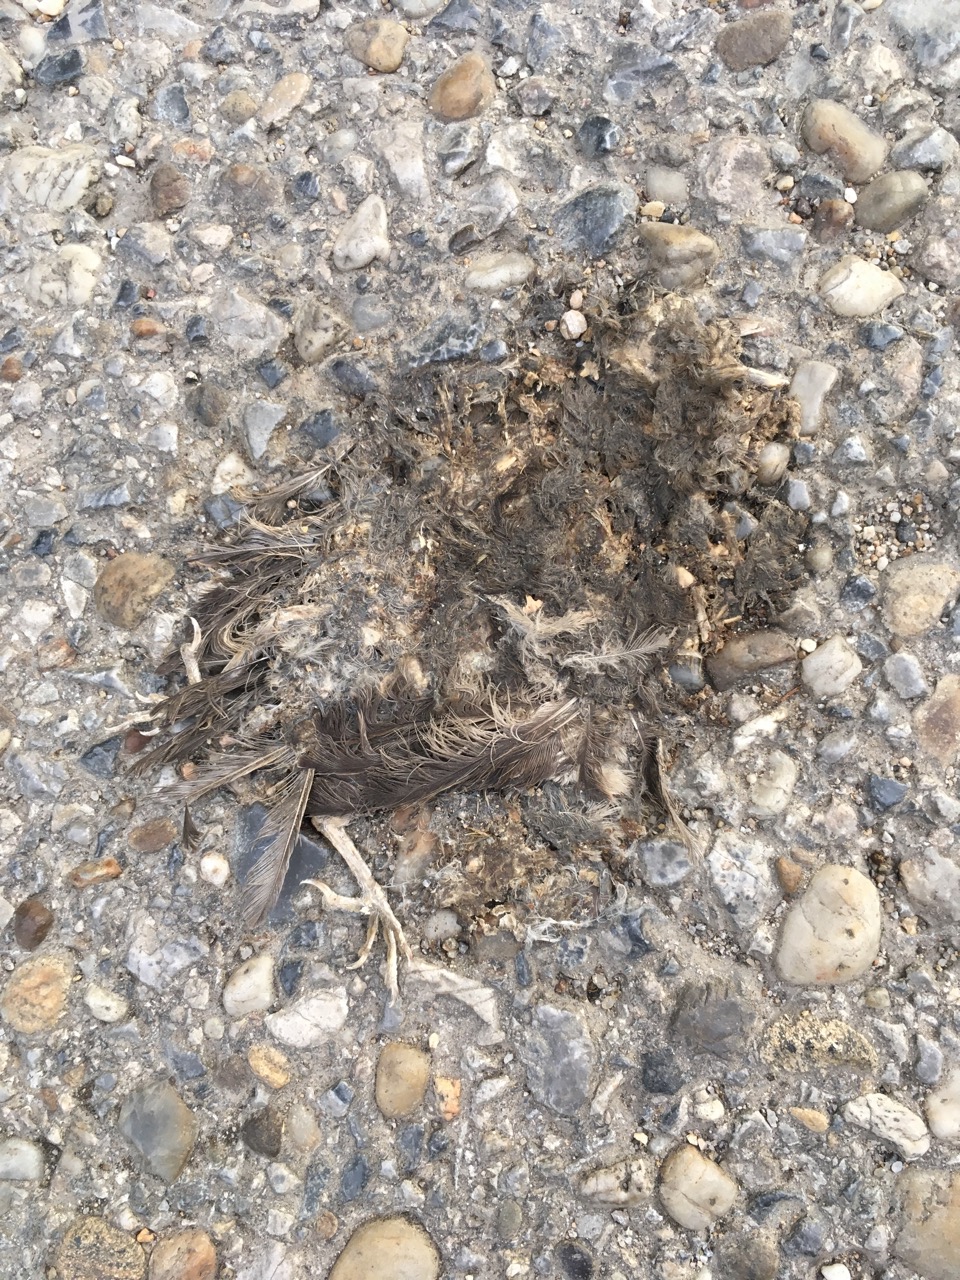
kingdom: Animalia
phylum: Chordata
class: Aves
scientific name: Aves
